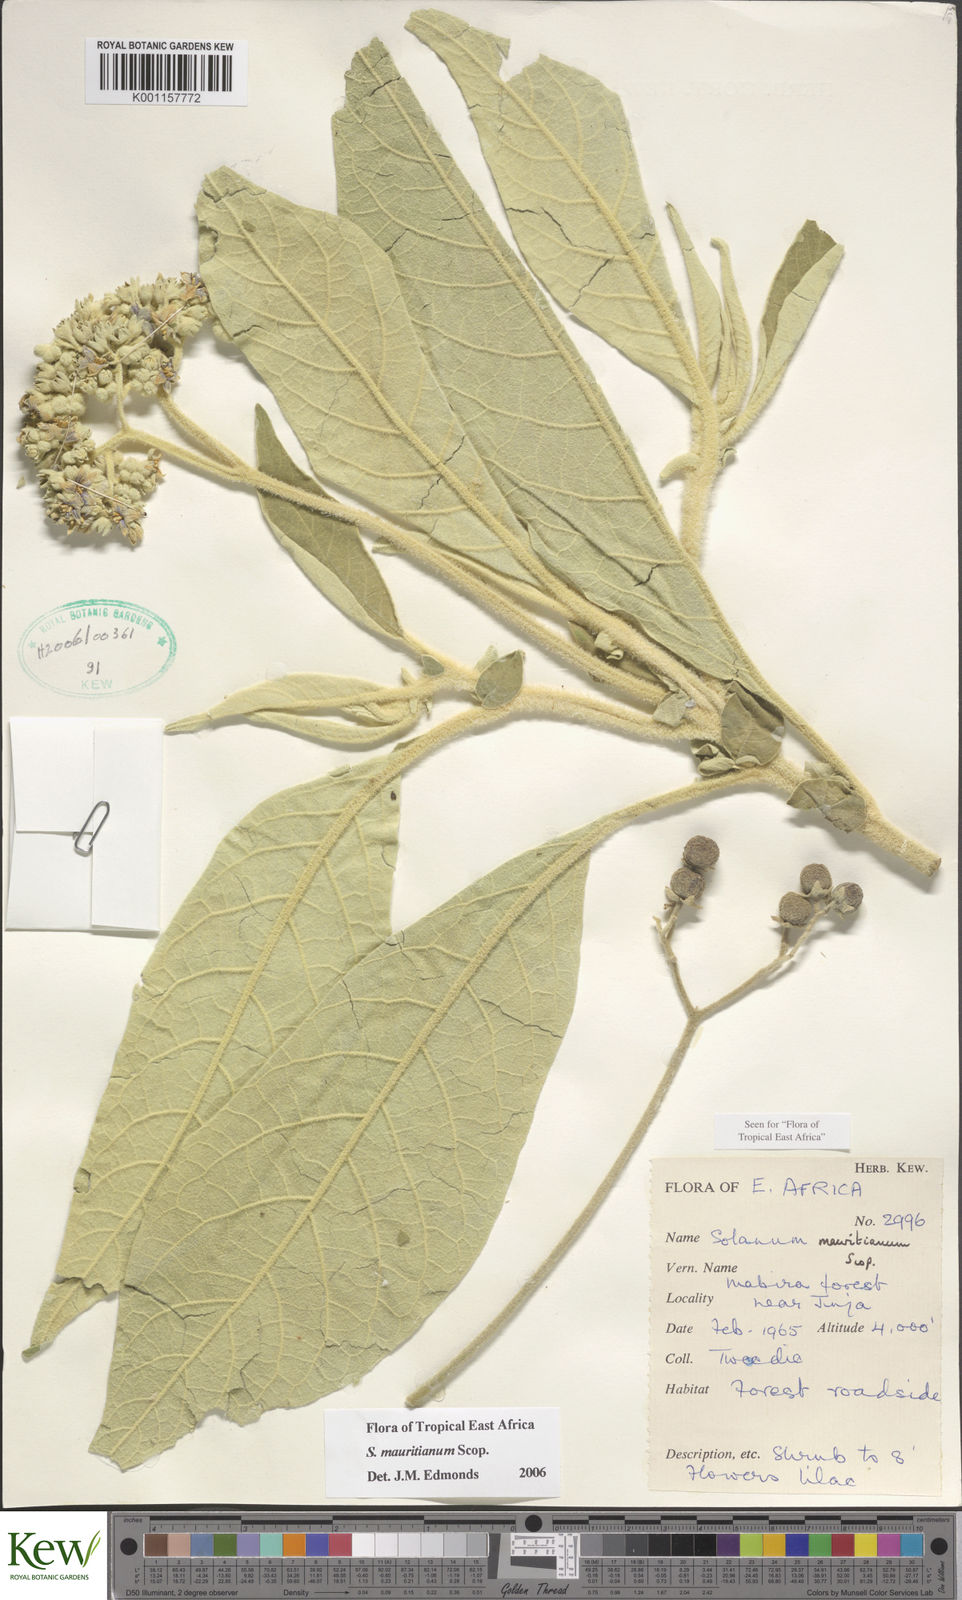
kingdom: Plantae
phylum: Tracheophyta
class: Magnoliopsida
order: Solanales
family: Solanaceae
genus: Solanum
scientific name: Solanum mauritianum
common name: Earleaf nightshade
